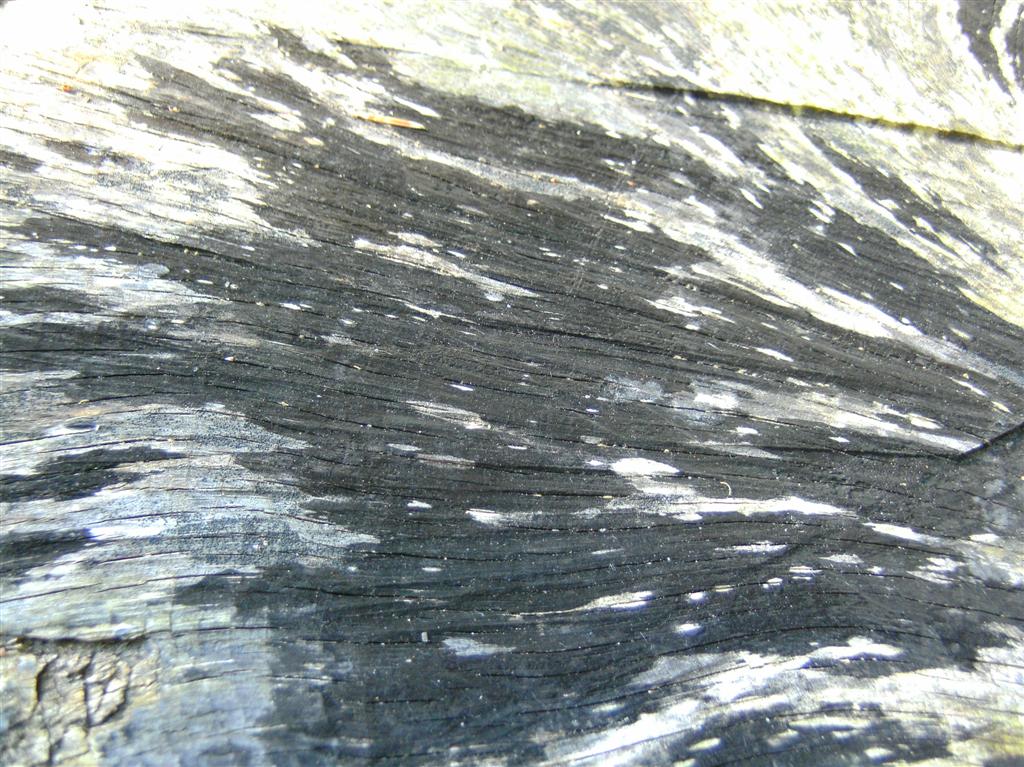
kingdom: Fungi
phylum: Ascomycota
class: Leotiomycetes
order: Helotiales
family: Helotiaceae
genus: Bispora
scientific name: Bispora pallescens
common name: måtte-snitskive
